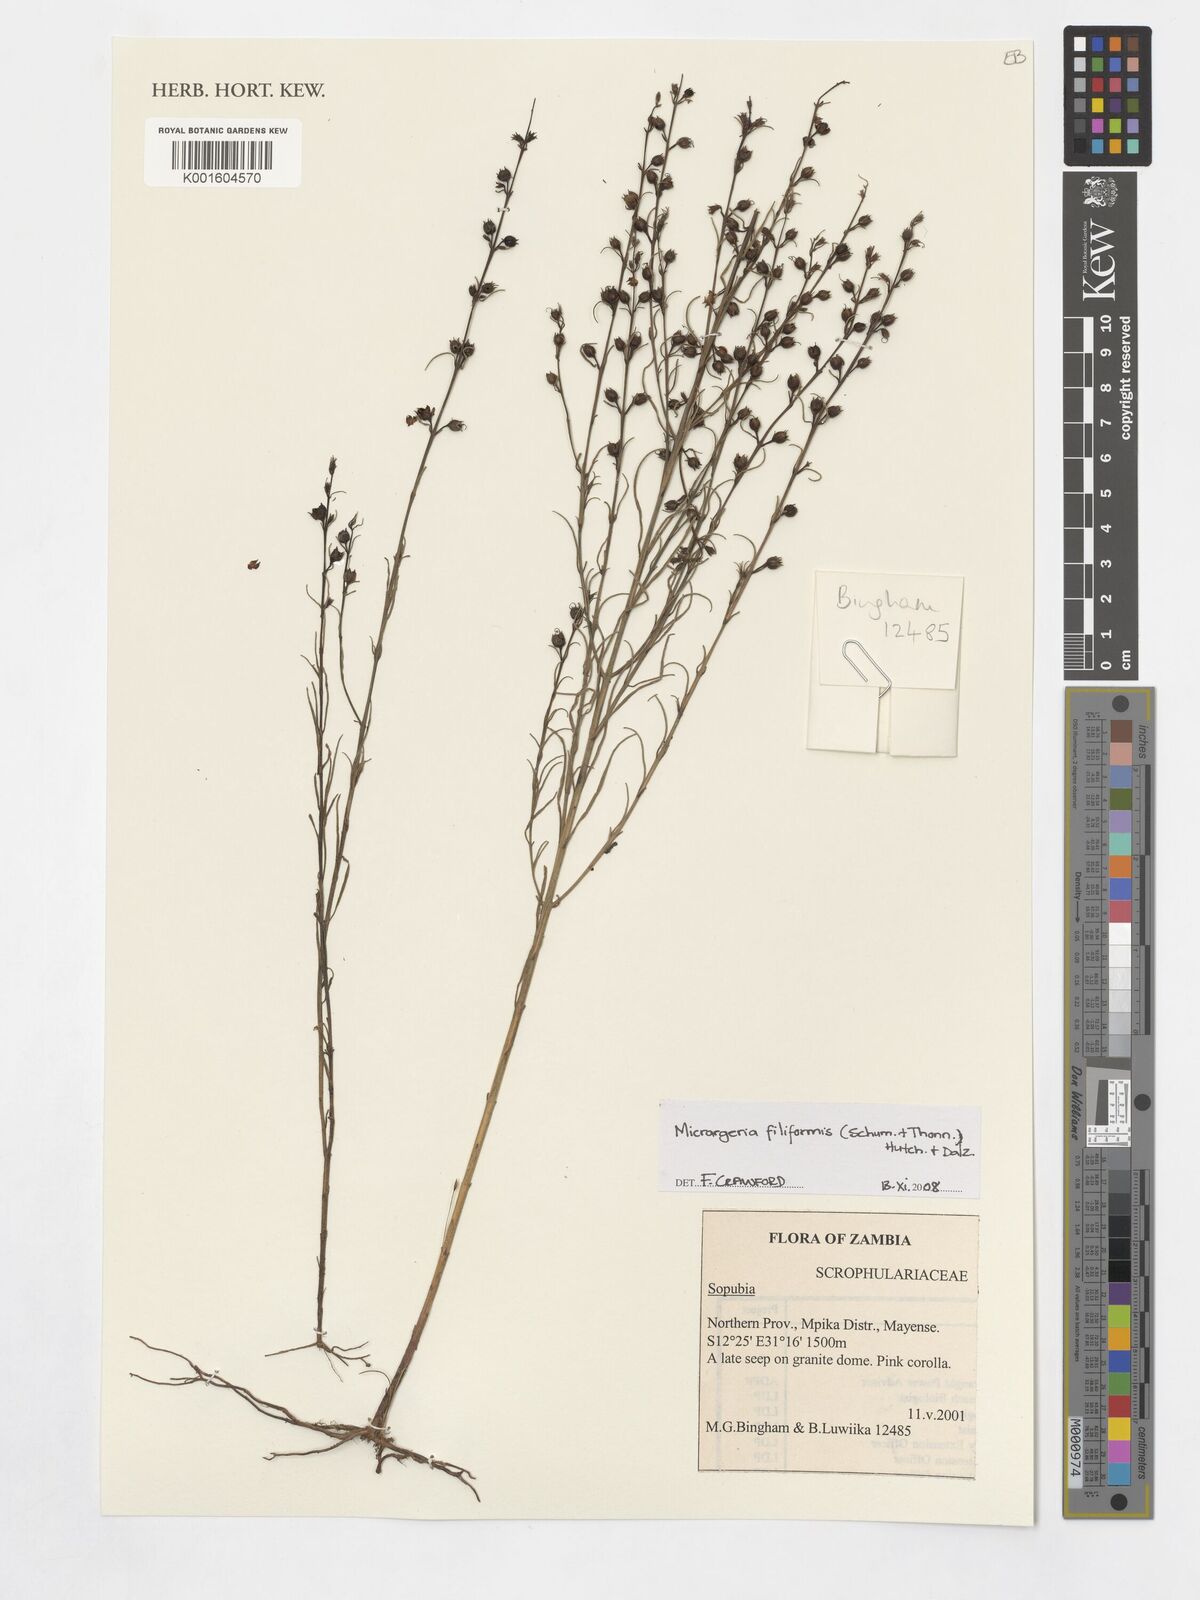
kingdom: Plantae
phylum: Tracheophyta
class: Magnoliopsida
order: Lamiales
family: Orobanchaceae
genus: Micrargeria
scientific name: Micrargeria filiformis
